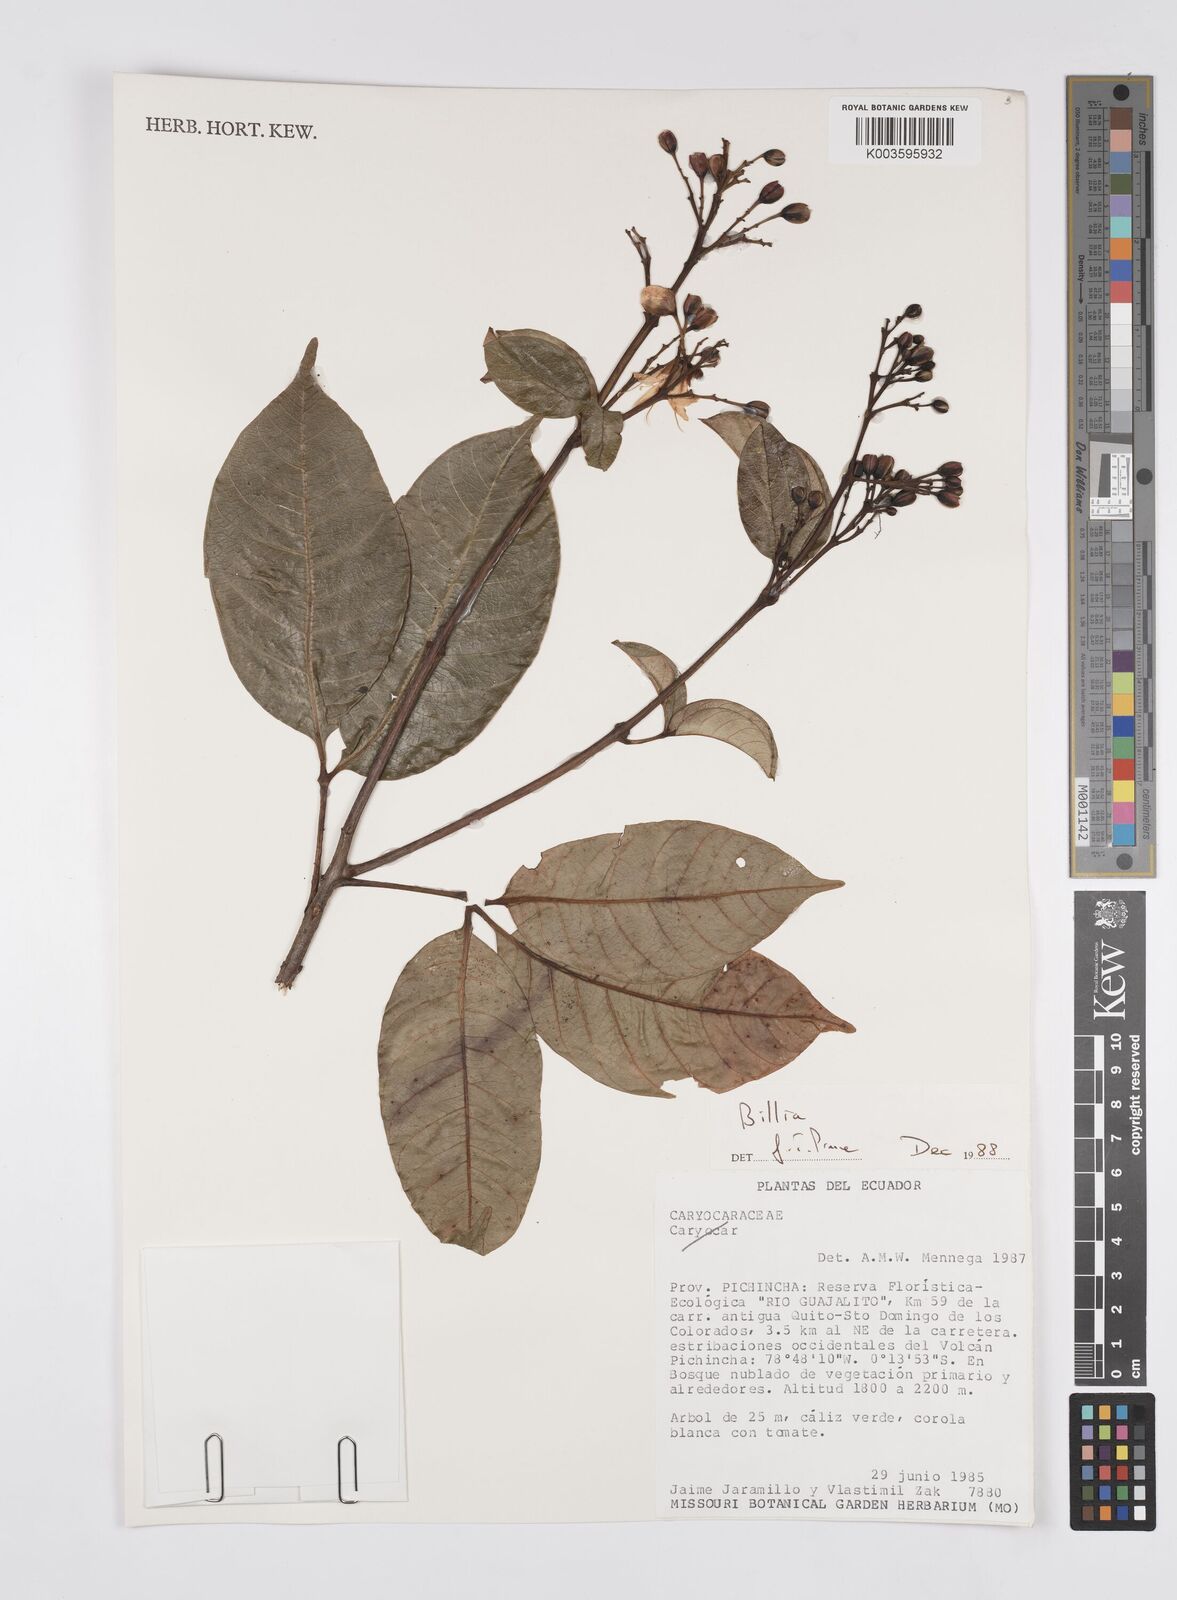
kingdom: Plantae
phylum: Tracheophyta
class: Magnoliopsida
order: Sapindales
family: Sapindaceae
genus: Billia
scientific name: Billia
